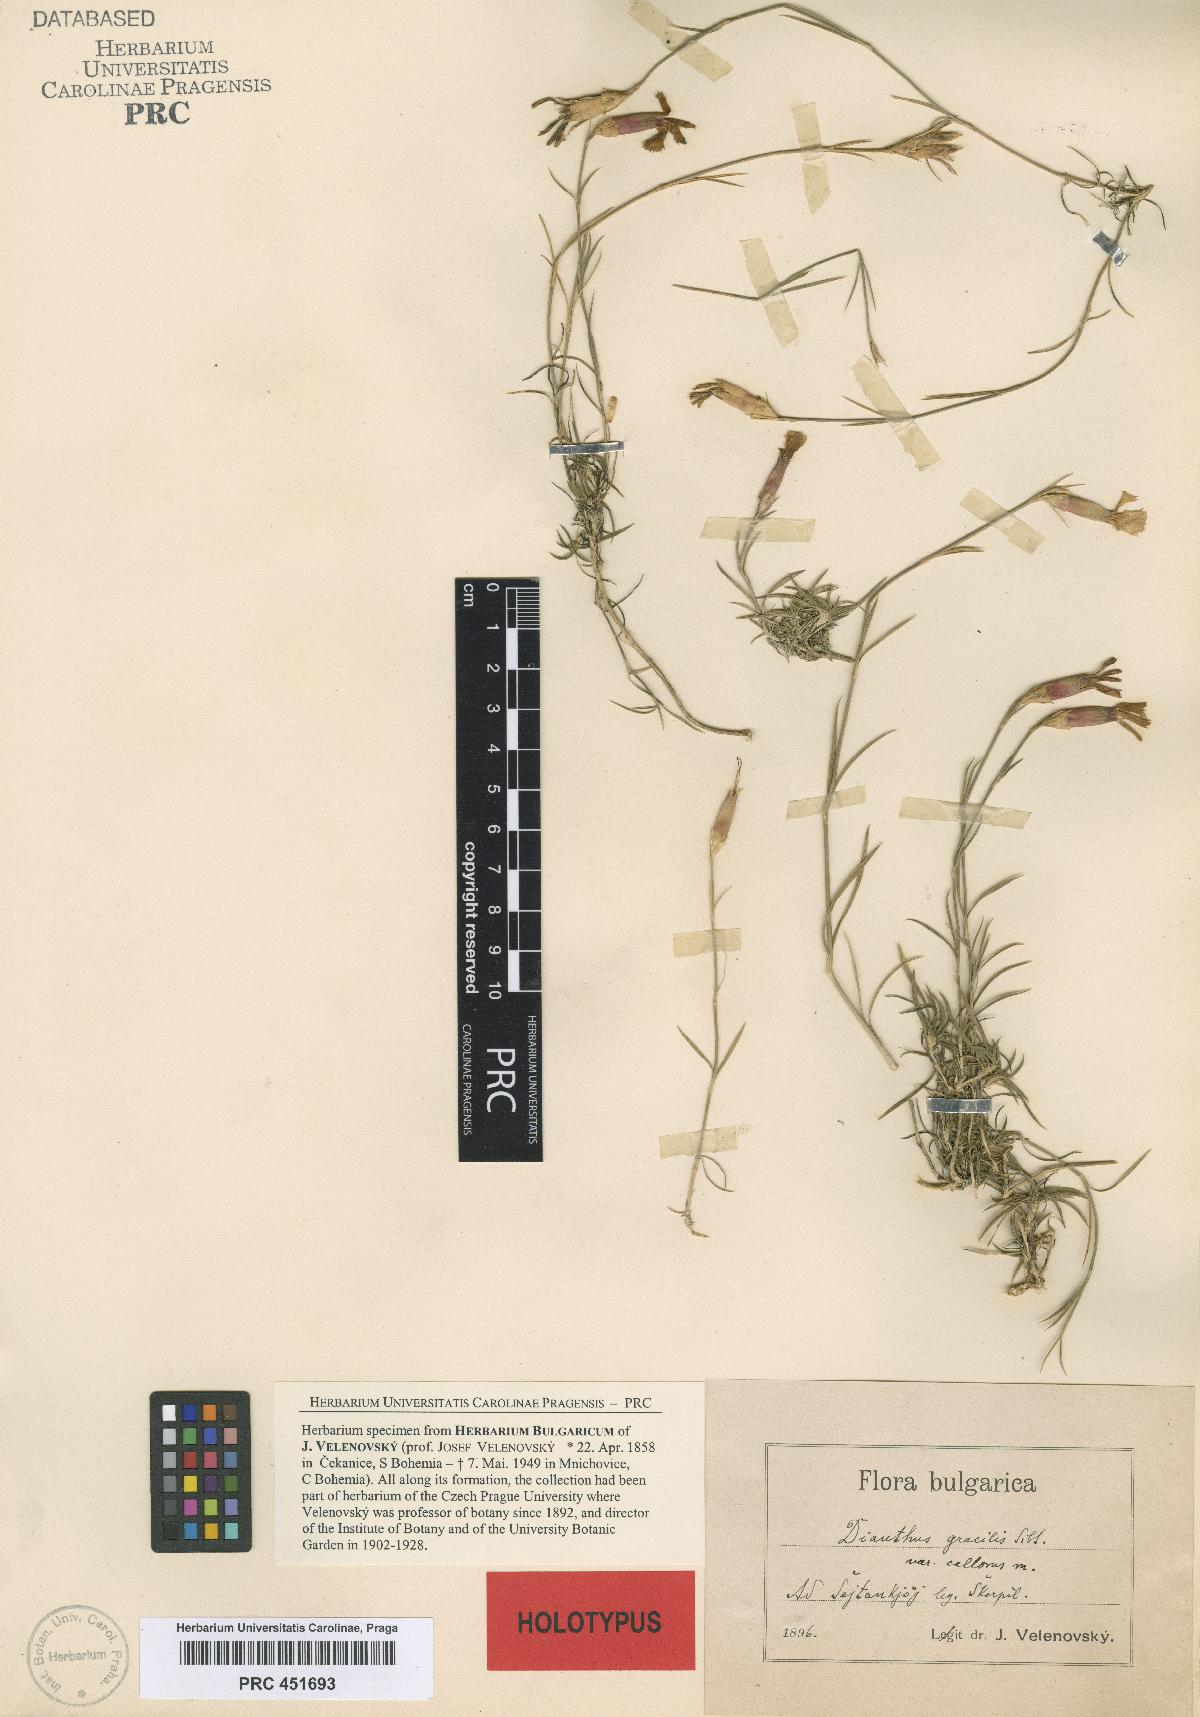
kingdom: Plantae
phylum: Tracheophyta
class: Magnoliopsida
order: Caryophyllales
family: Caryophyllaceae
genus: Dianthus
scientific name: Dianthus gracilis
